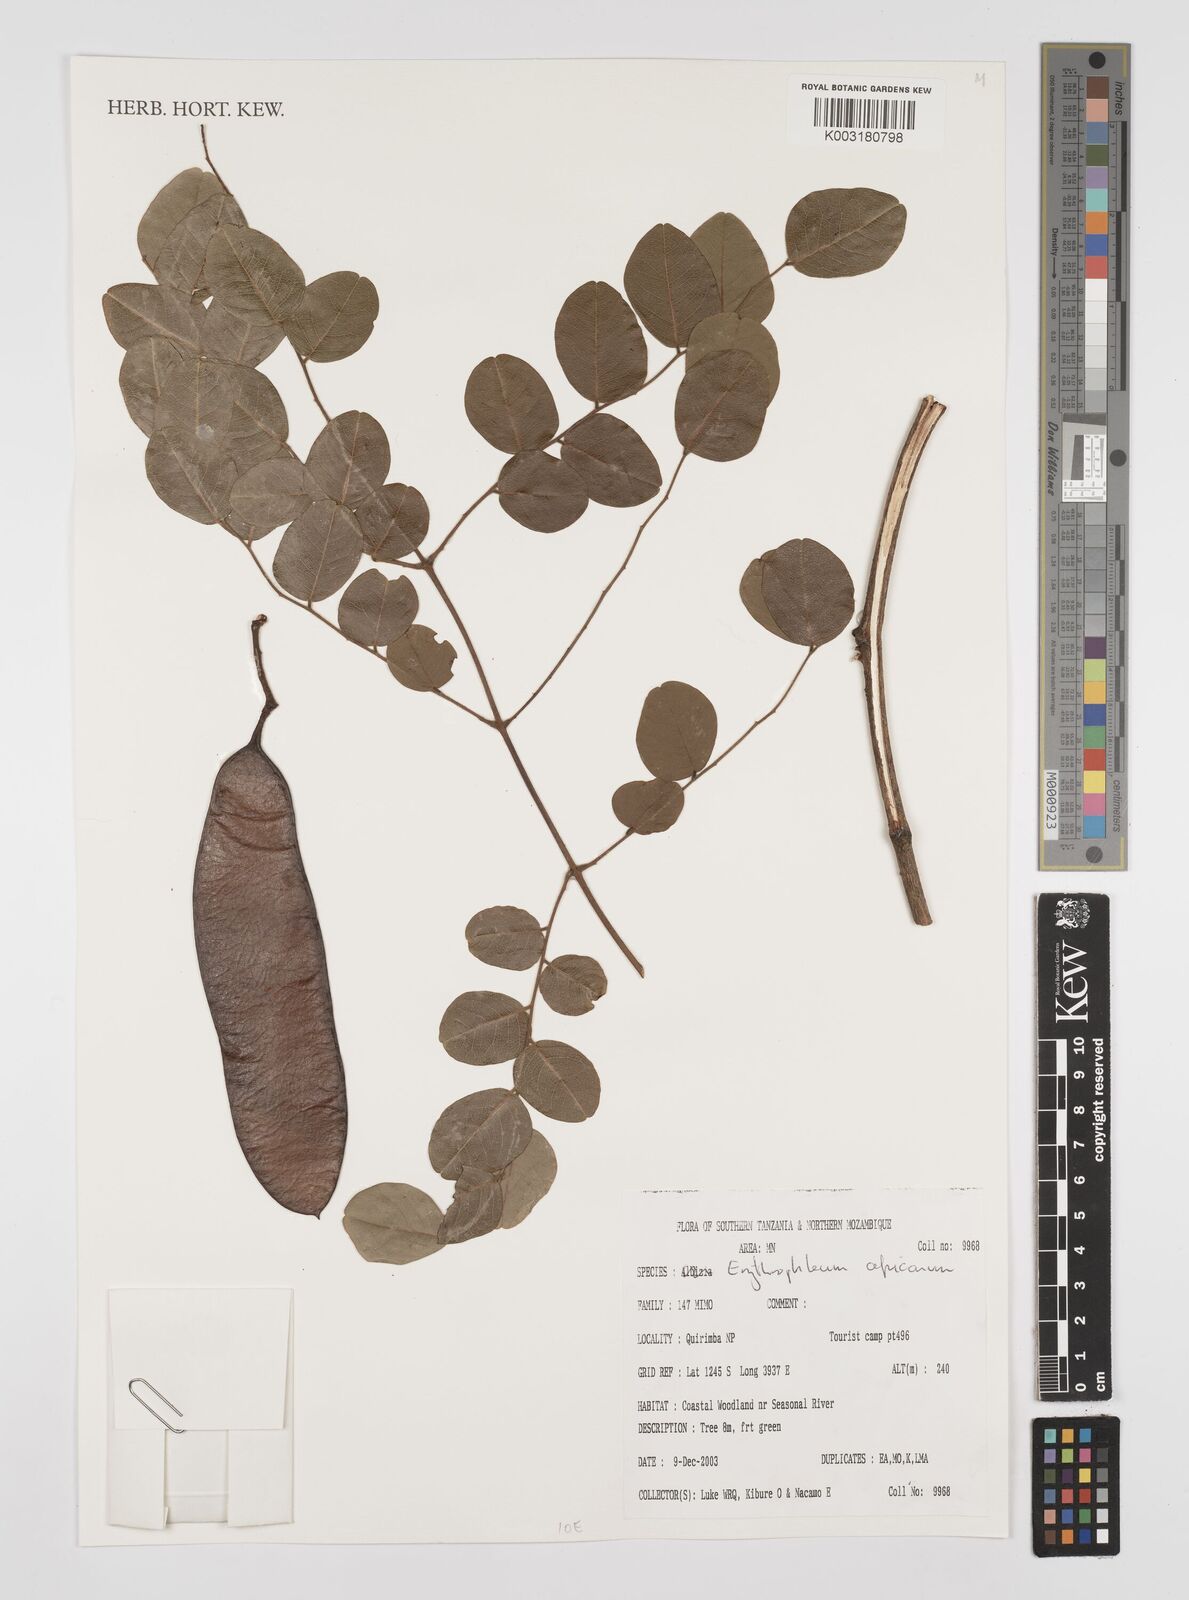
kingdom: Plantae
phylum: Tracheophyta
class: Magnoliopsida
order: Fabales
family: Fabaceae
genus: Peltophorum
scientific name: Peltophorum africanum
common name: African black wattle
